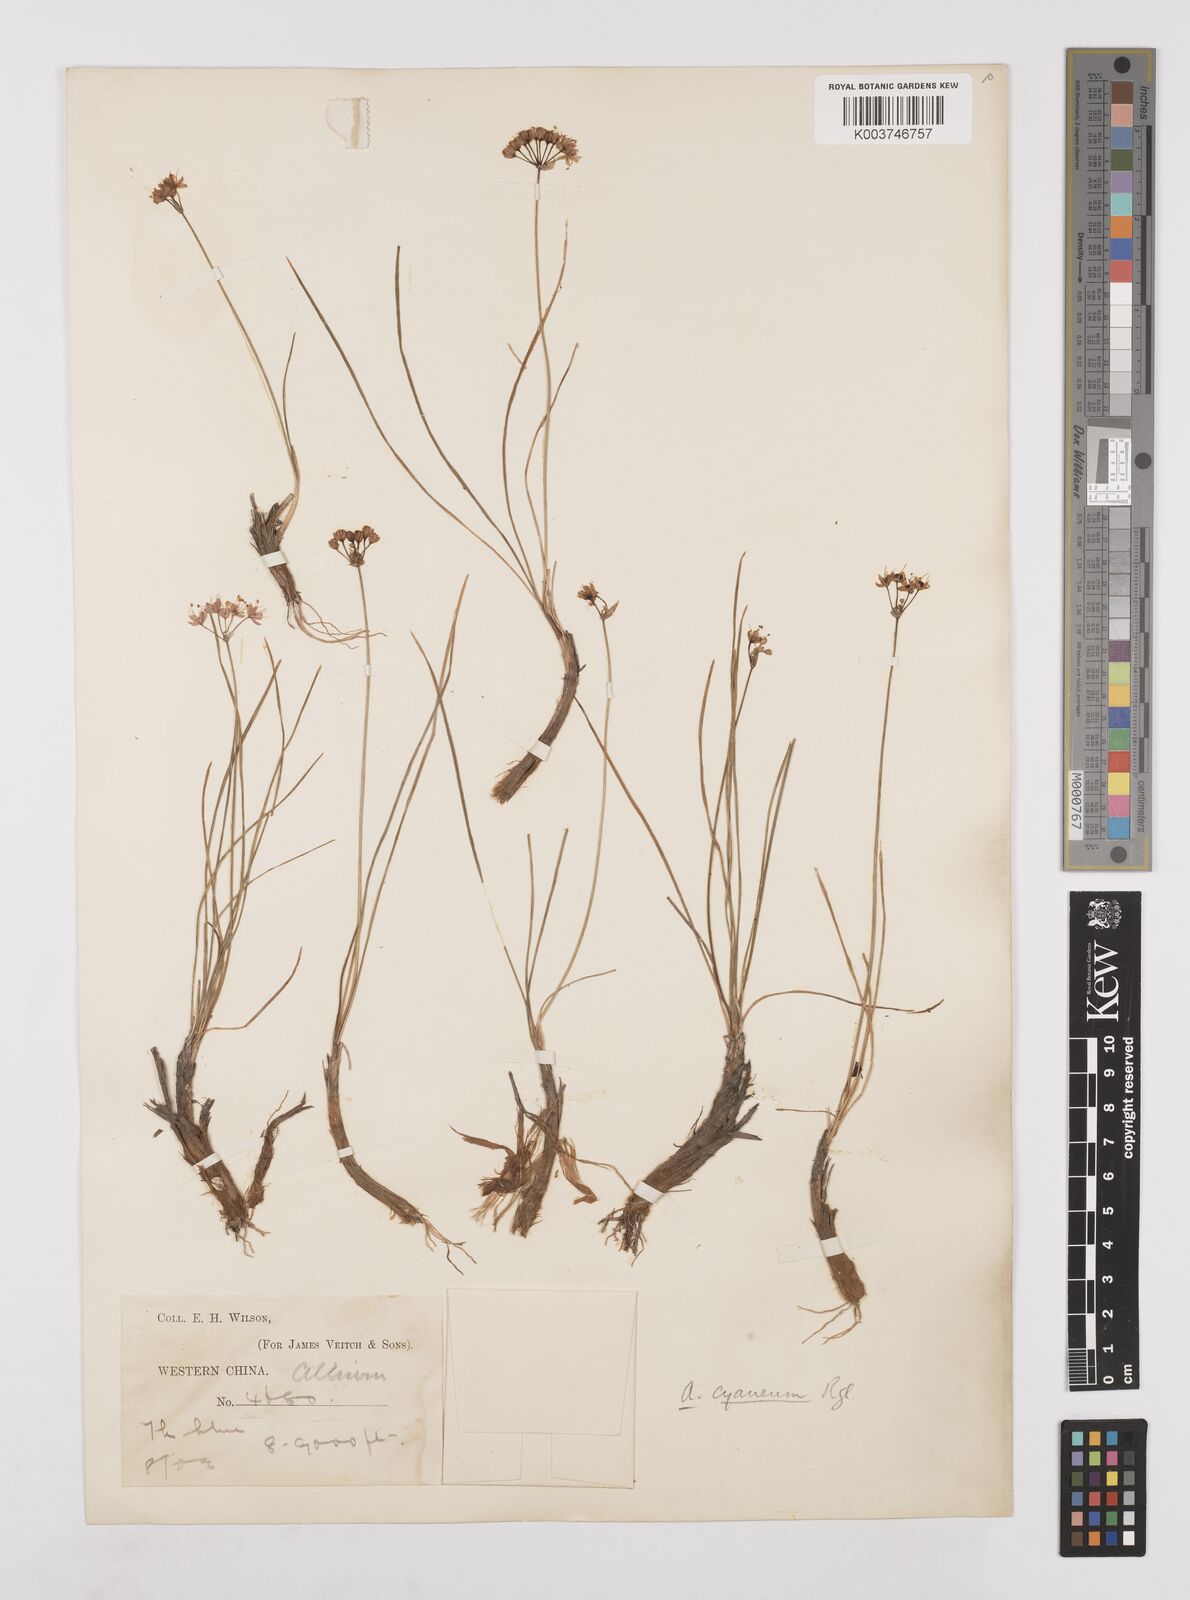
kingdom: Plantae
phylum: Tracheophyta
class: Liliopsida
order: Asparagales
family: Amaryllidaceae
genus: Allium
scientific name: Allium cyaneum
